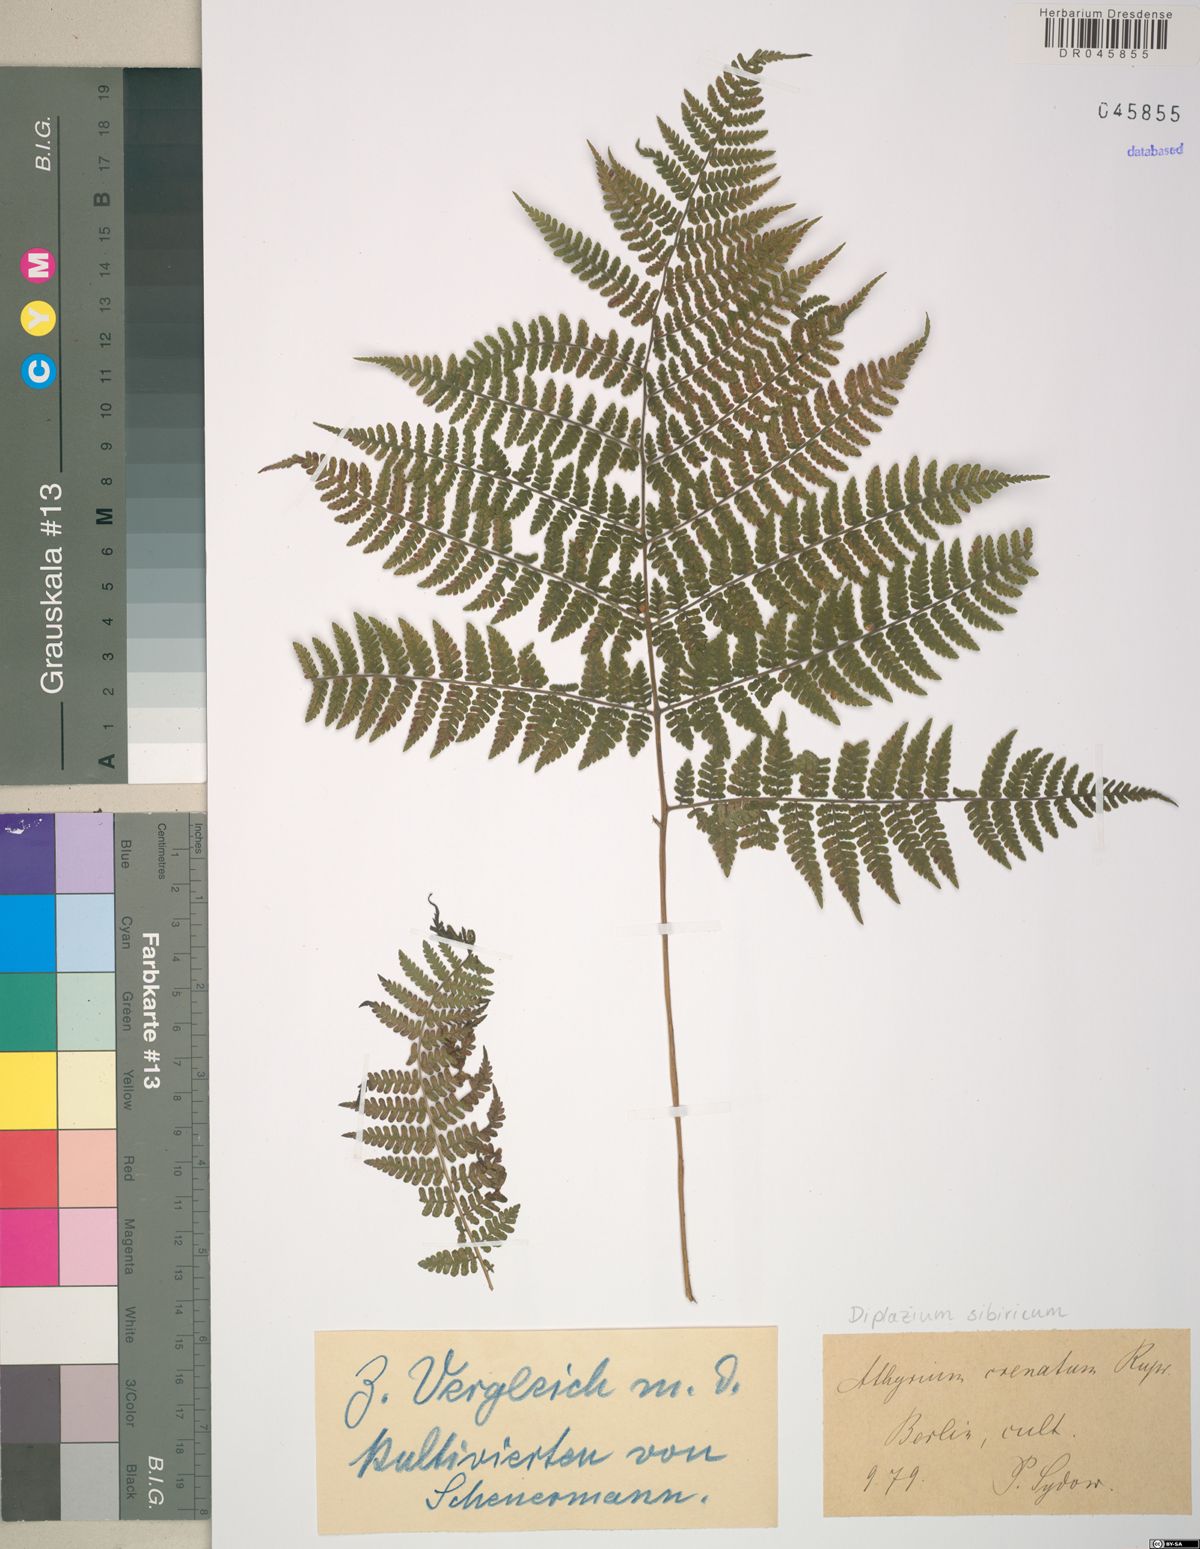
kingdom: Plantae
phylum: Tracheophyta
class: Polypodiopsida
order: Polypodiales
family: Athyriaceae
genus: Diplazium
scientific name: Diplazium sibiricum
